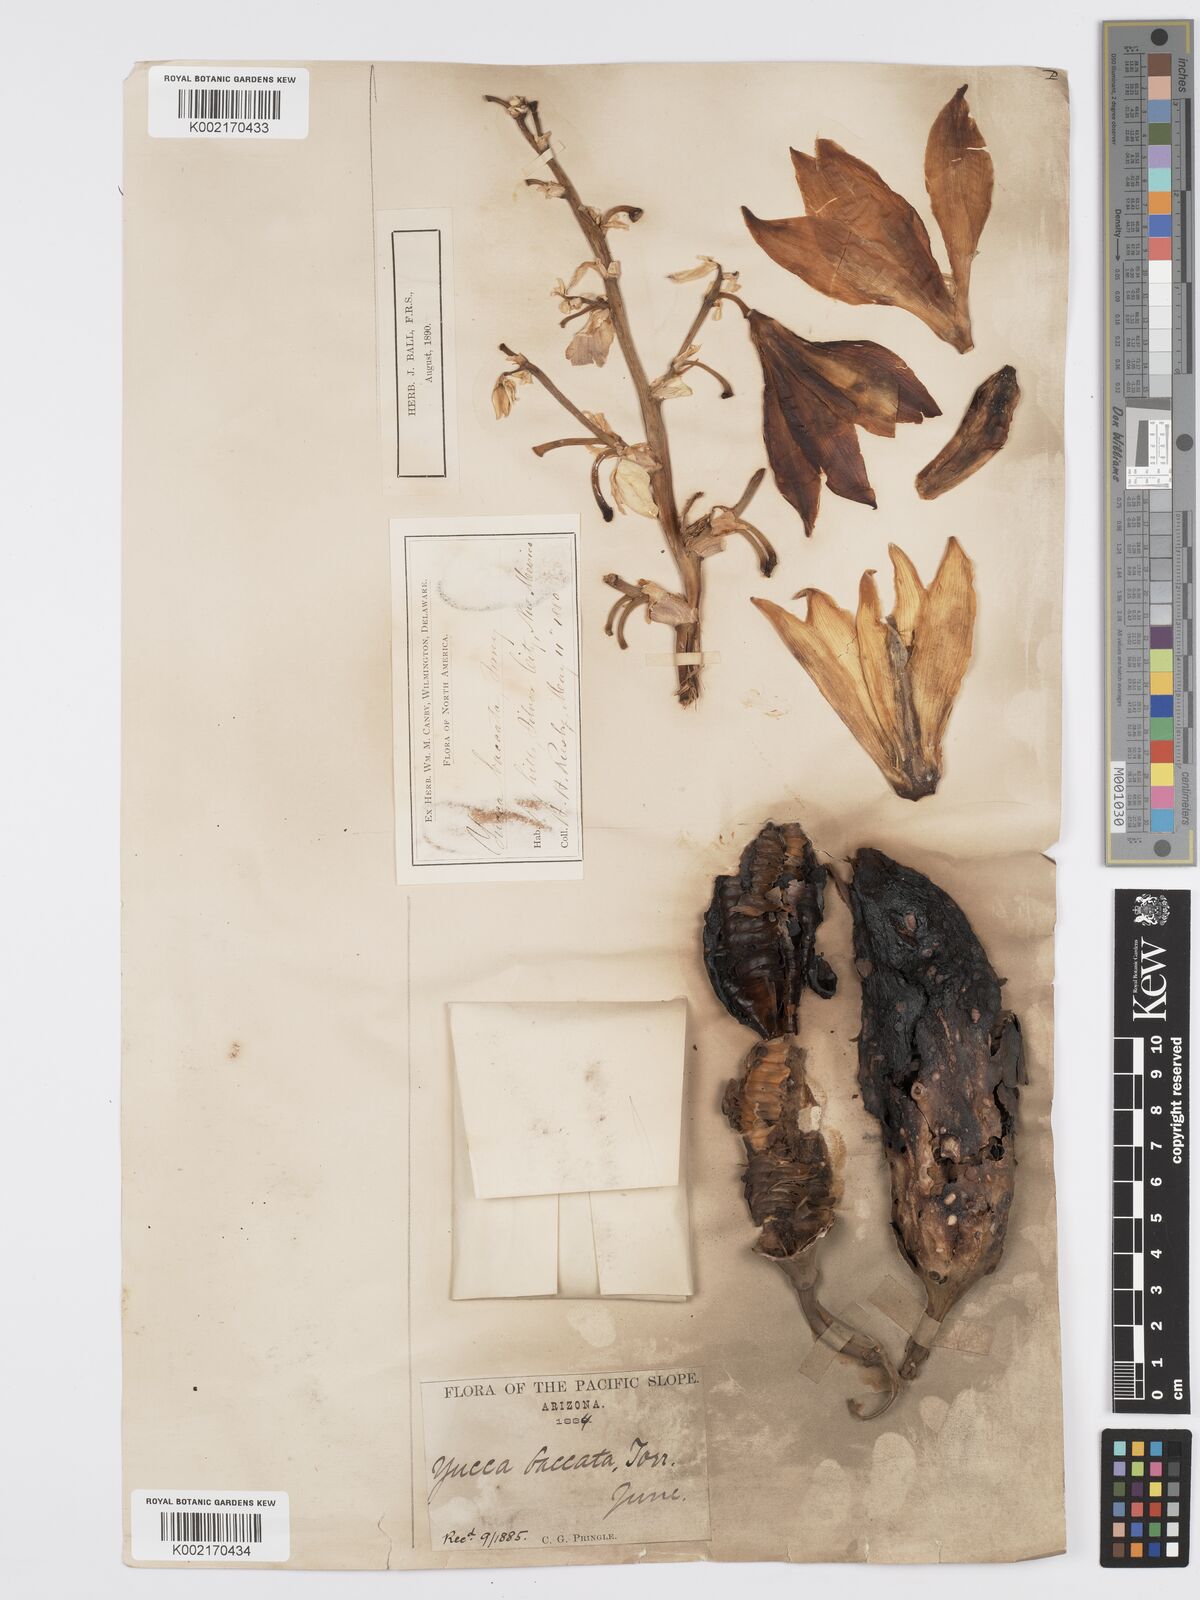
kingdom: Plantae
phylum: Tracheophyta
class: Liliopsida
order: Asparagales
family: Asparagaceae
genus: Yucca
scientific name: Yucca baccata
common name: Banana yucca
